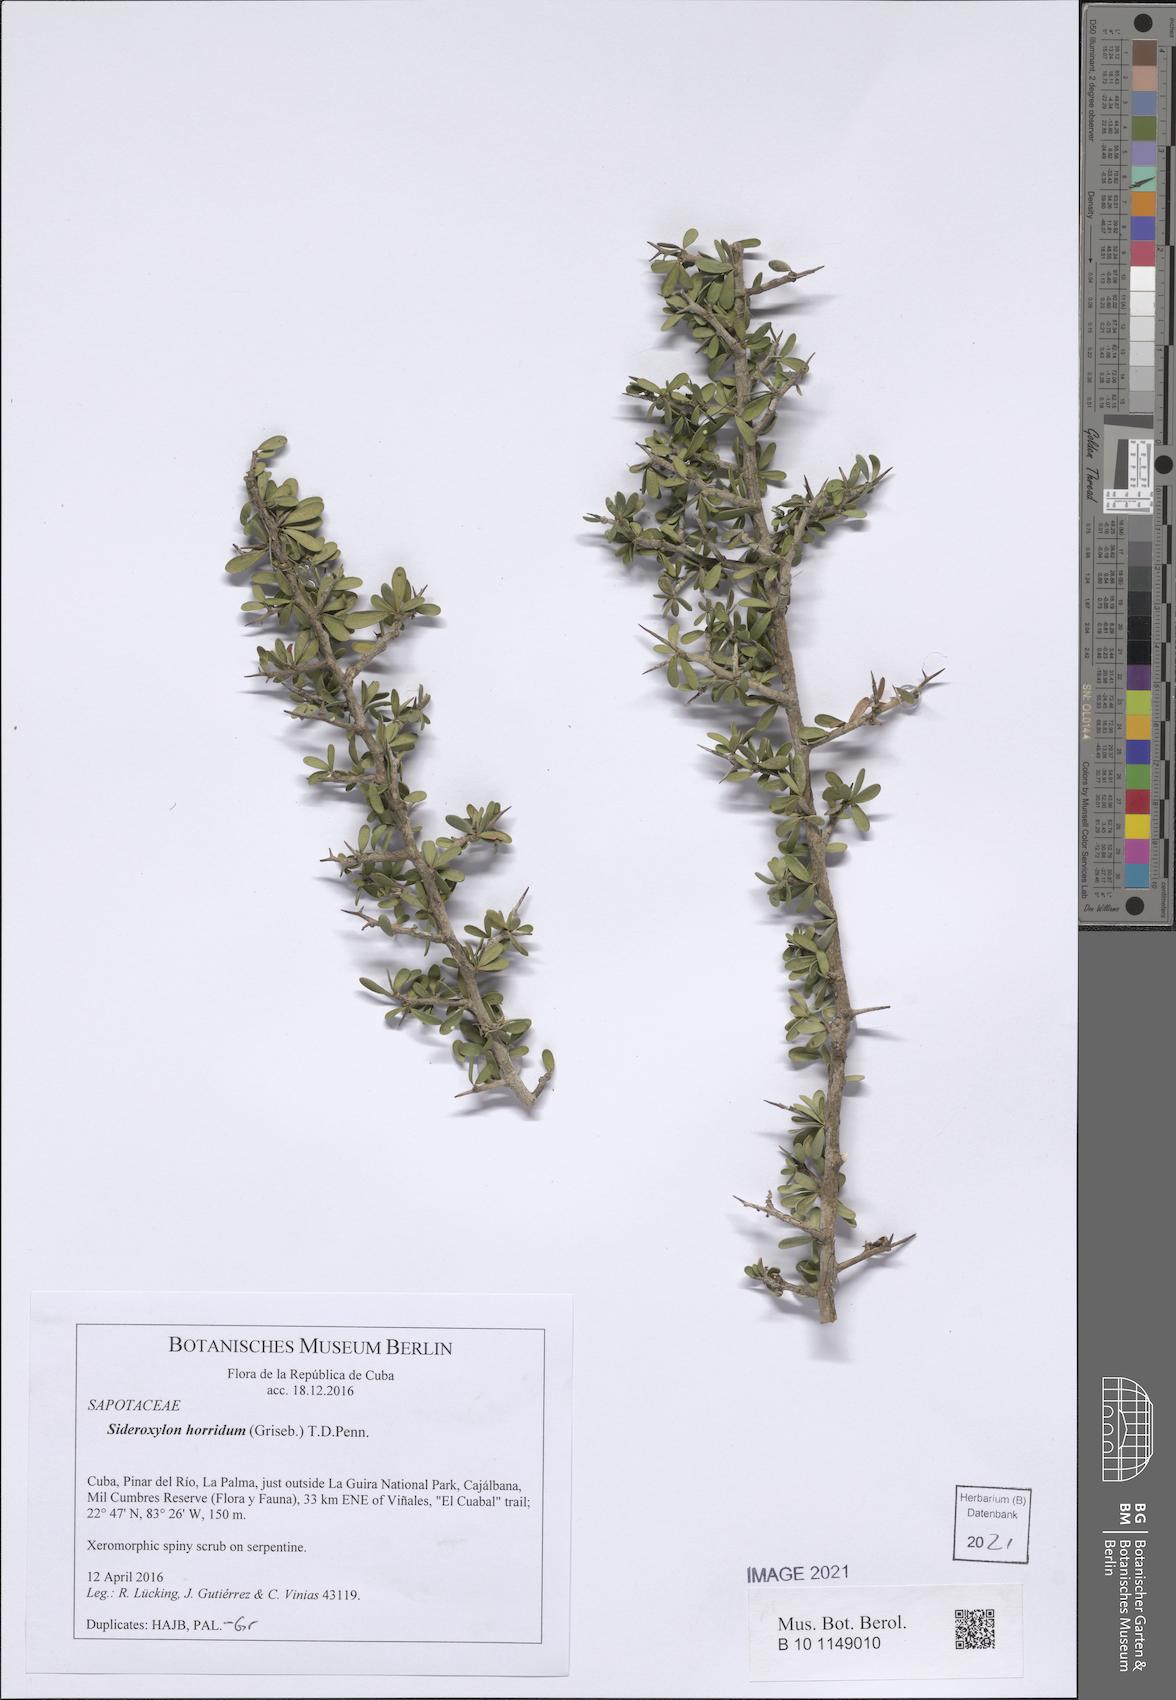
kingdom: Plantae
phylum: Tracheophyta
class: Magnoliopsida
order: Ericales
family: Sapotaceae
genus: Sideroxylon
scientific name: Sideroxylon horridum
